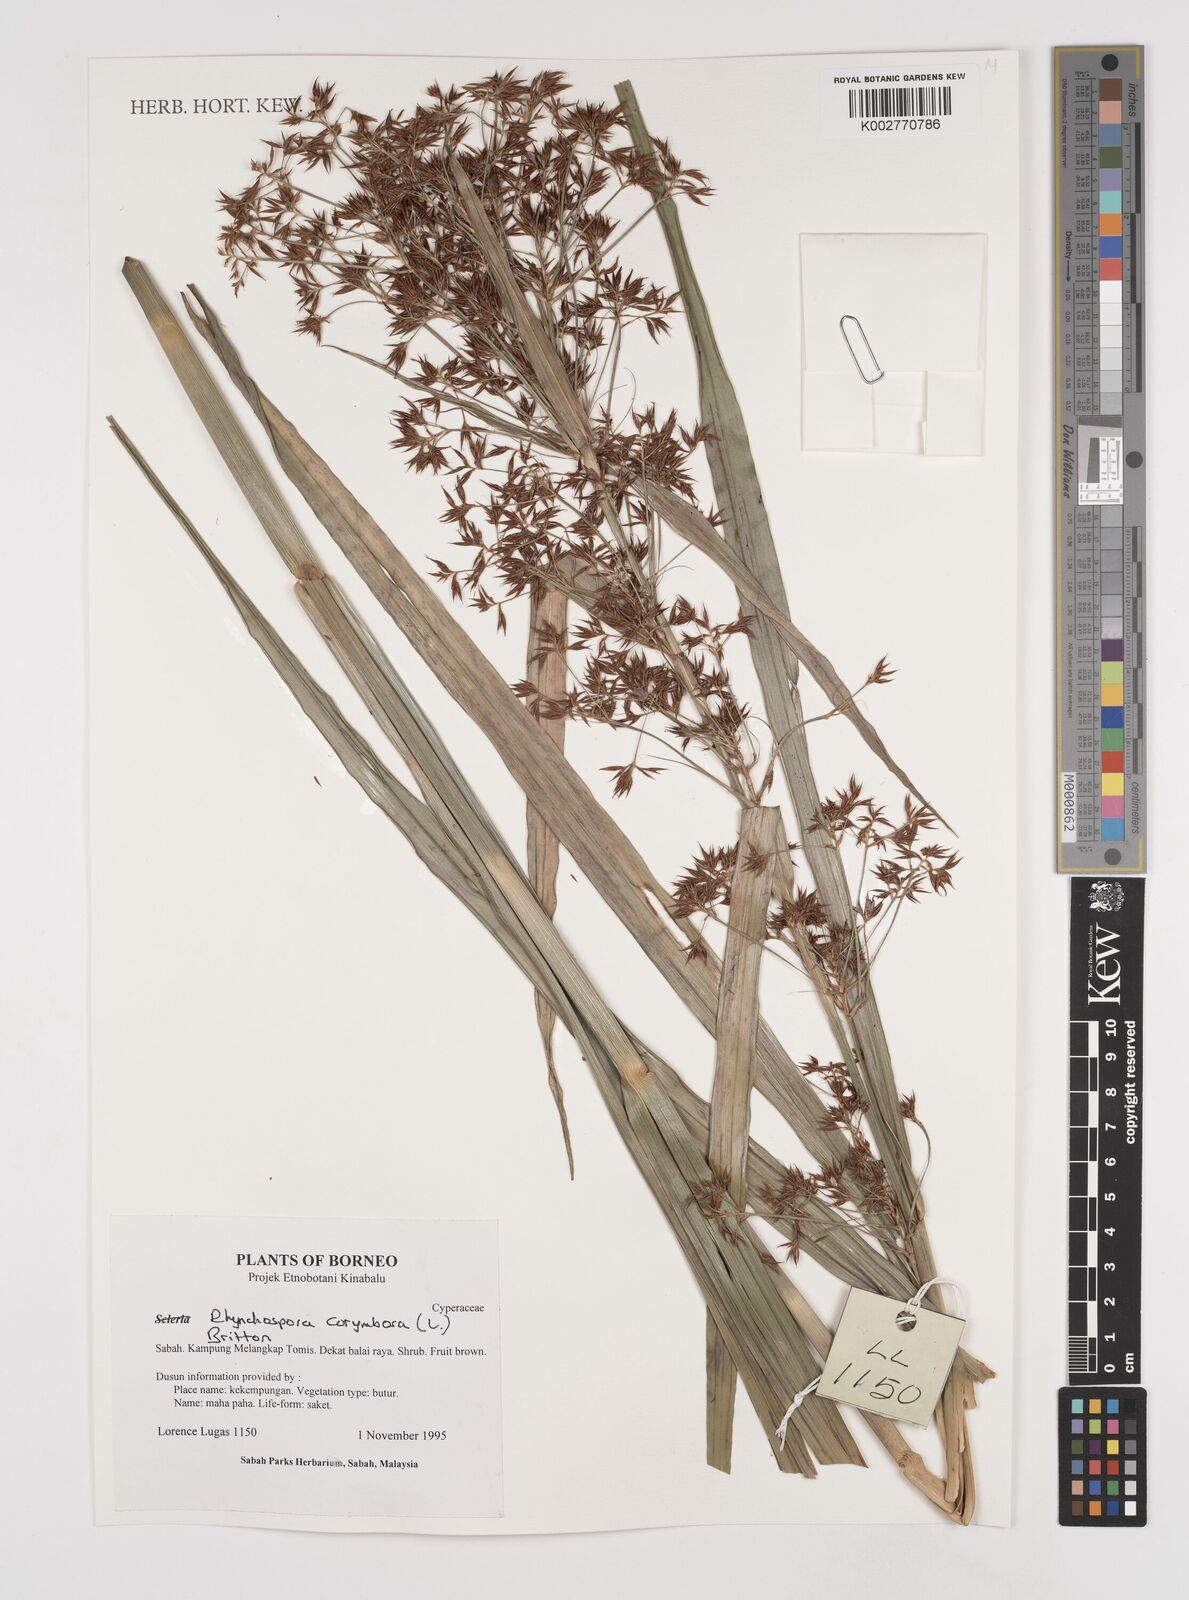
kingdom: Plantae
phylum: Tracheophyta
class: Liliopsida
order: Poales
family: Cyperaceae
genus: Rhynchospora
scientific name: Rhynchospora corymbosa
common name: Golden beak sedge
